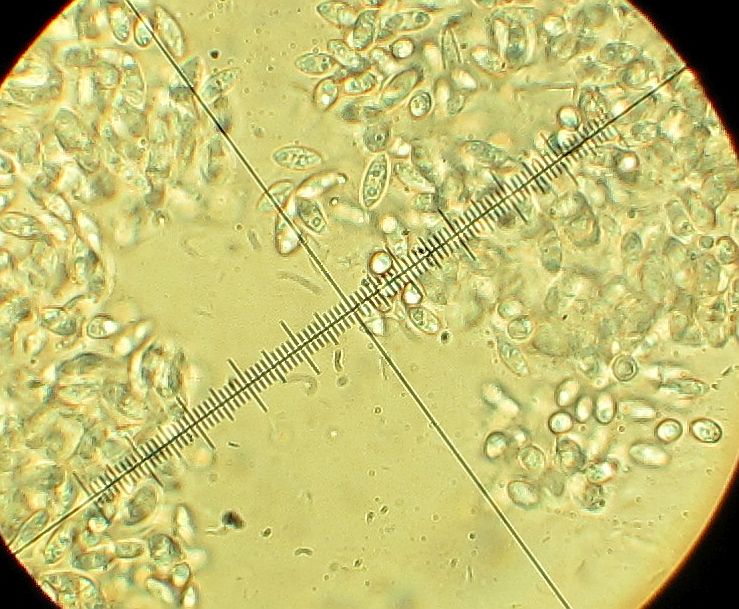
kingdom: Fungi
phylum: Ascomycota
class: Sordariomycetes
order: Diaporthales
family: Diaporthaceae
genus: Diaporthe
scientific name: Diaporthe stictica
